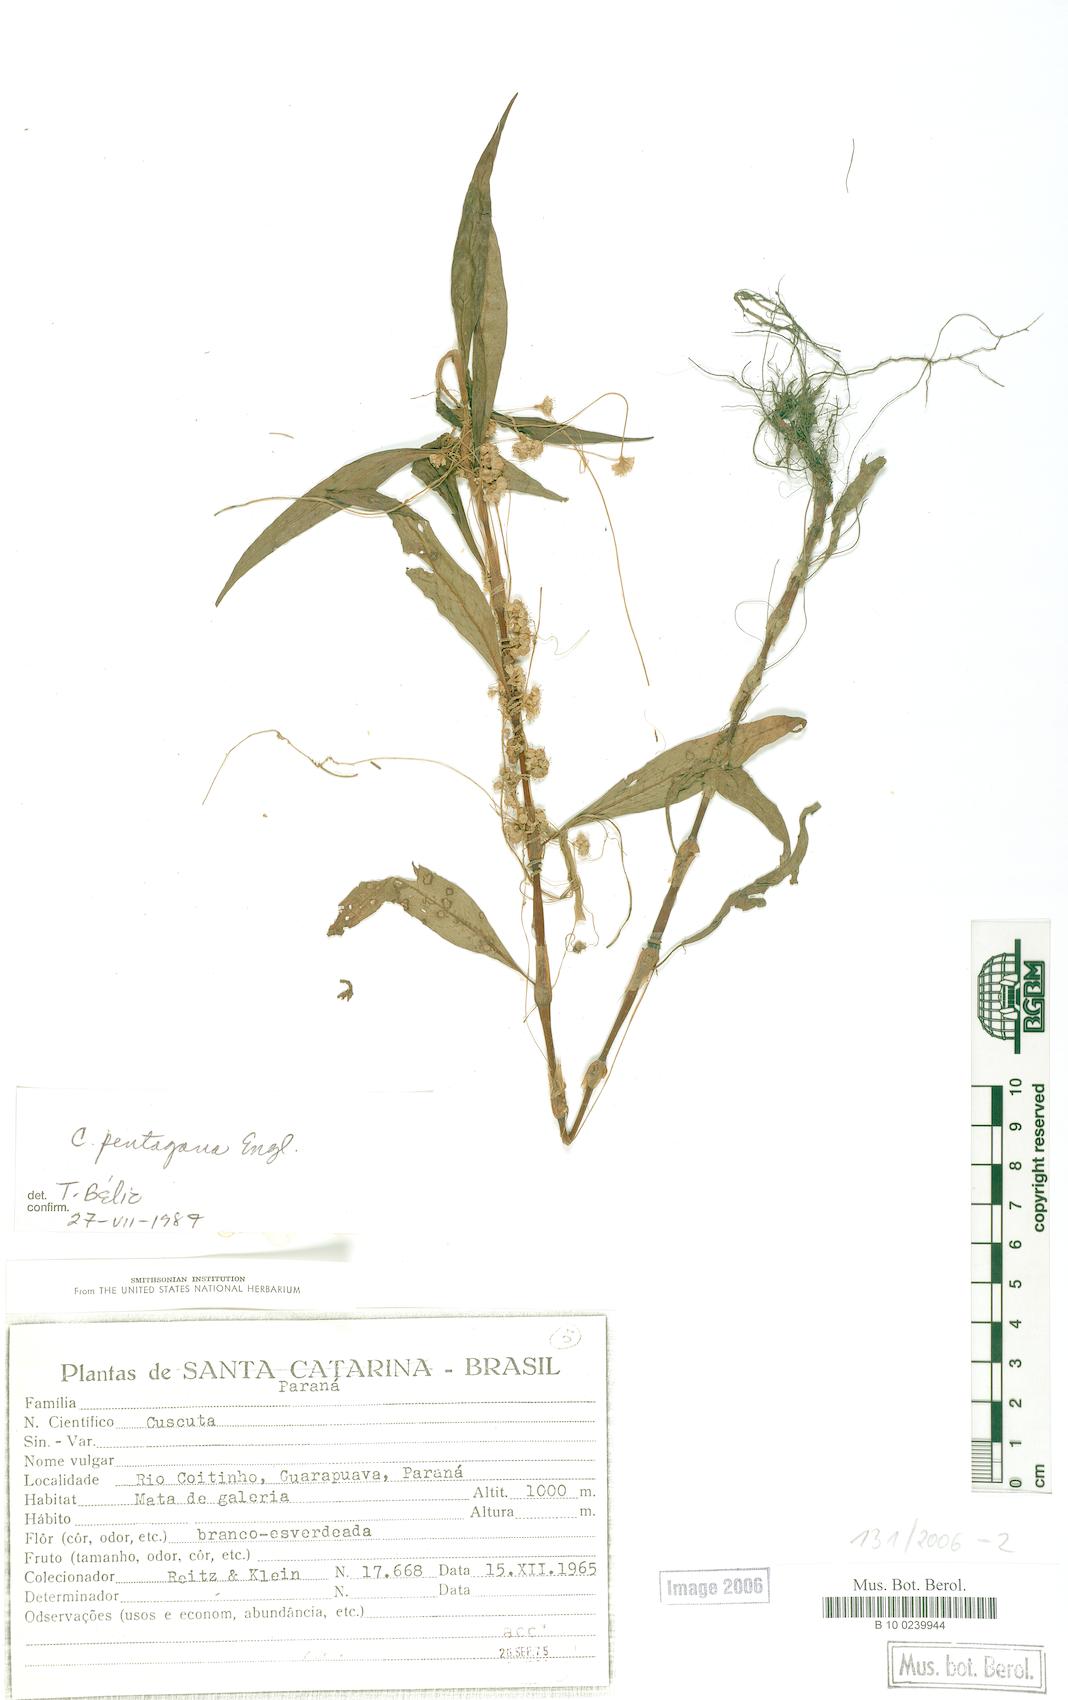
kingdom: Plantae
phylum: Tracheophyta
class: Magnoliopsida
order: Solanales
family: Convolvulaceae
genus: Cuscuta
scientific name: Cuscuta pentagona
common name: Fiveangled dodder
